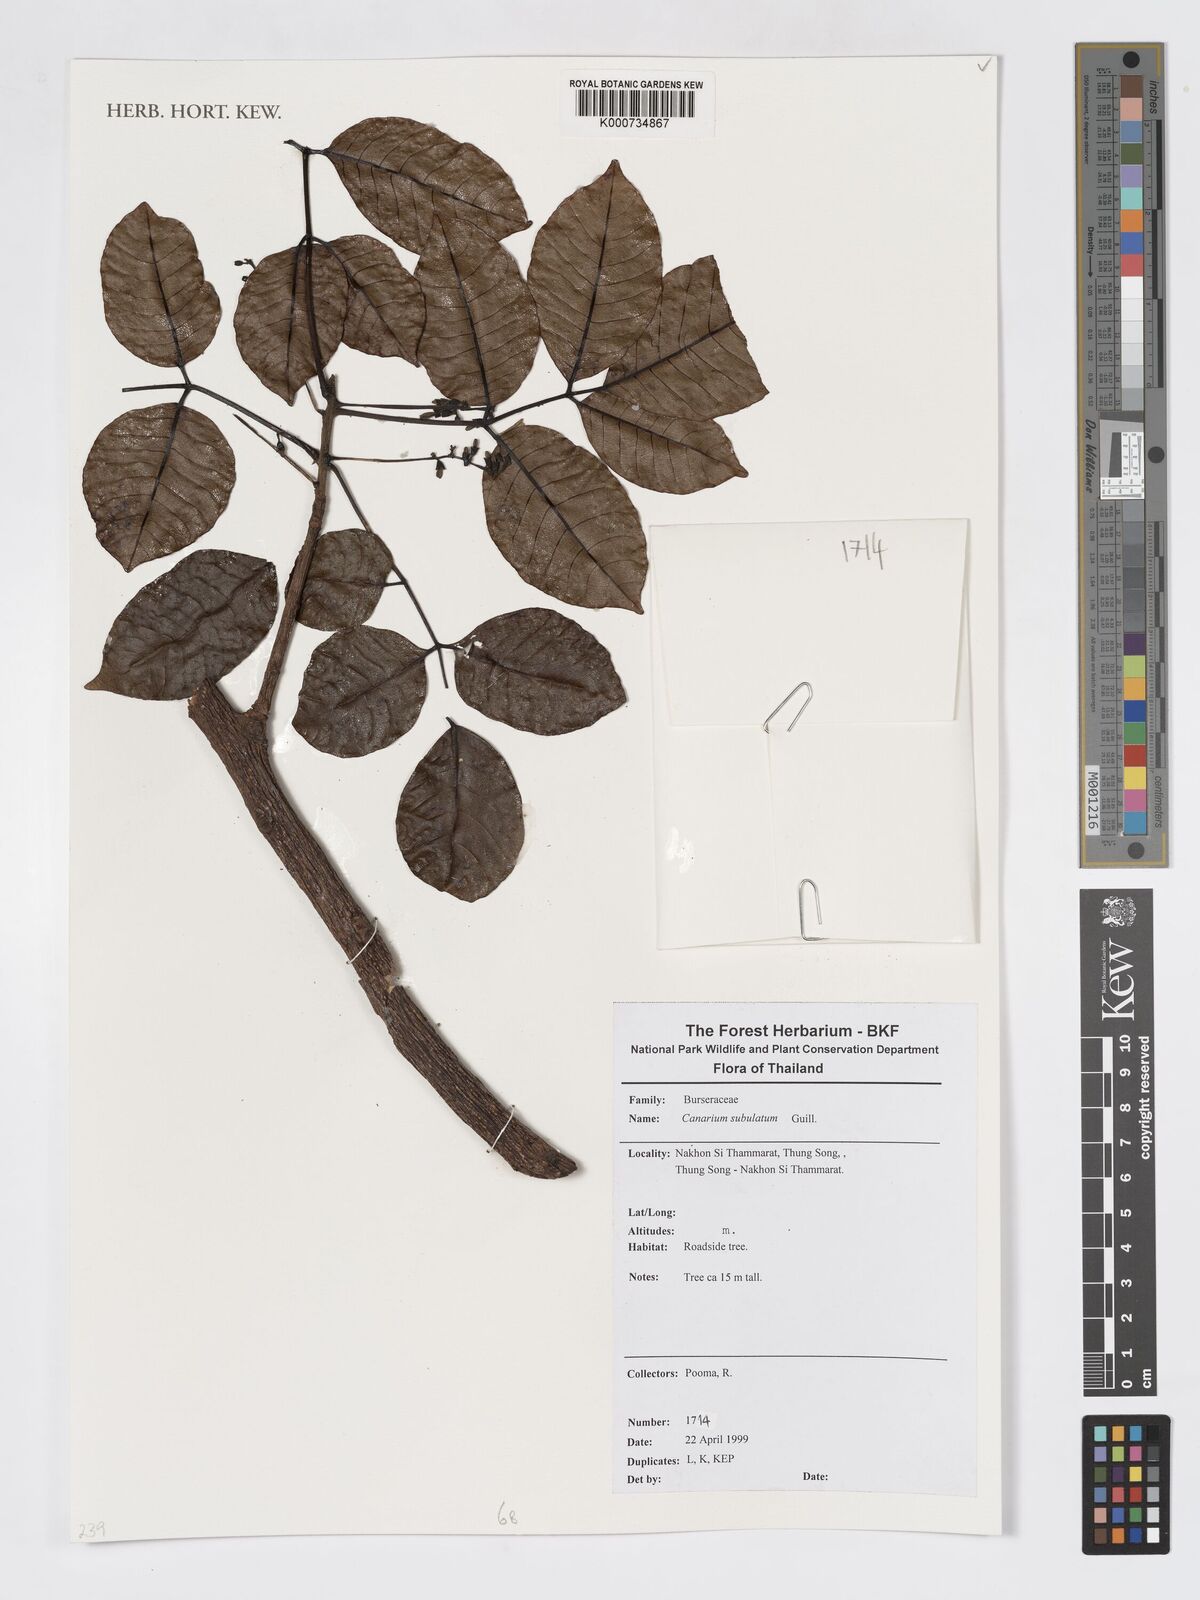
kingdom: Plantae
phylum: Tracheophyta
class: Magnoliopsida
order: Sapindales
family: Burseraceae
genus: Canarium
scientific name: Canarium patentinervium
